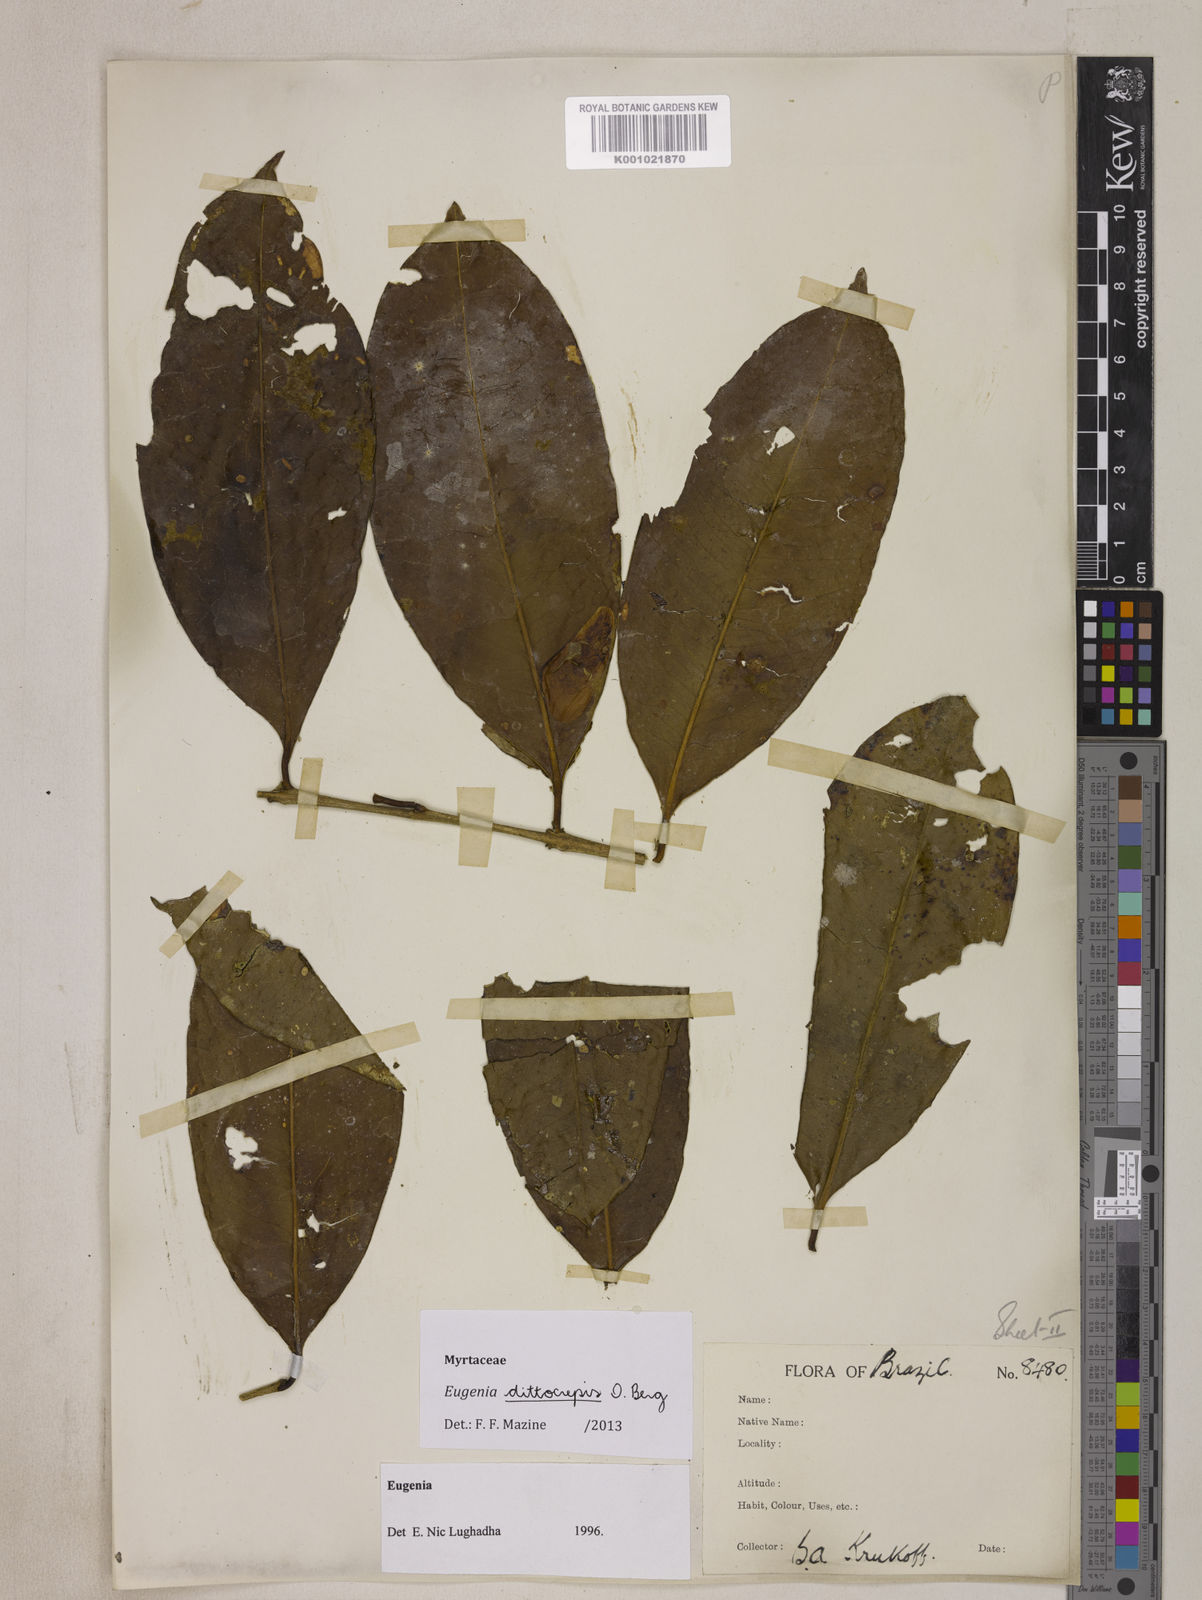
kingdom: Plantae
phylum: Tracheophyta
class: Magnoliopsida
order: Myrtales
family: Myrtaceae
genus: Eugenia
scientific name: Eugenia dittocrepis
